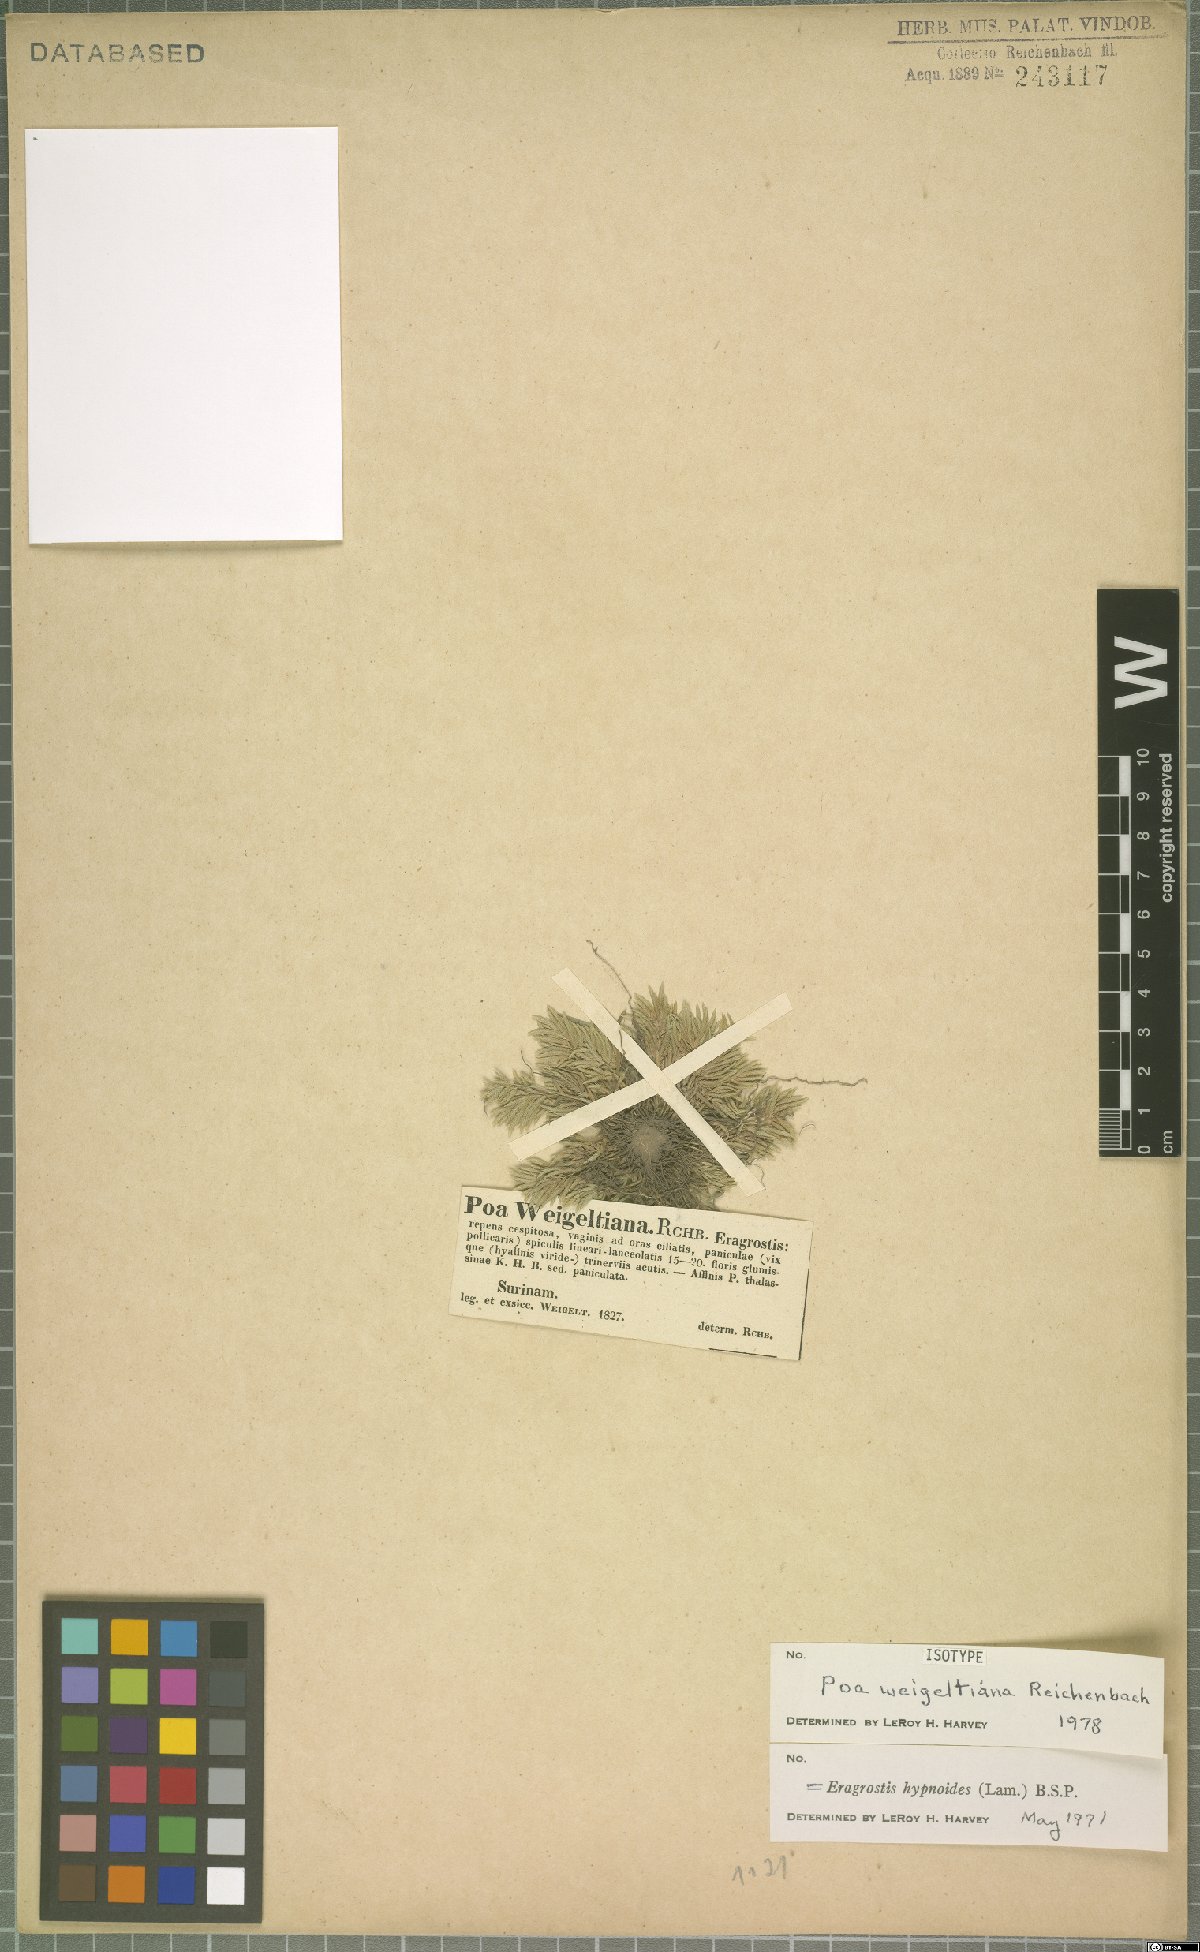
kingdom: Plantae
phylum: Tracheophyta
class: Liliopsida
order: Poales
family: Poaceae
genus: Eragrostis
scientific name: Eragrostis hypnoides
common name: Creeping love grass
